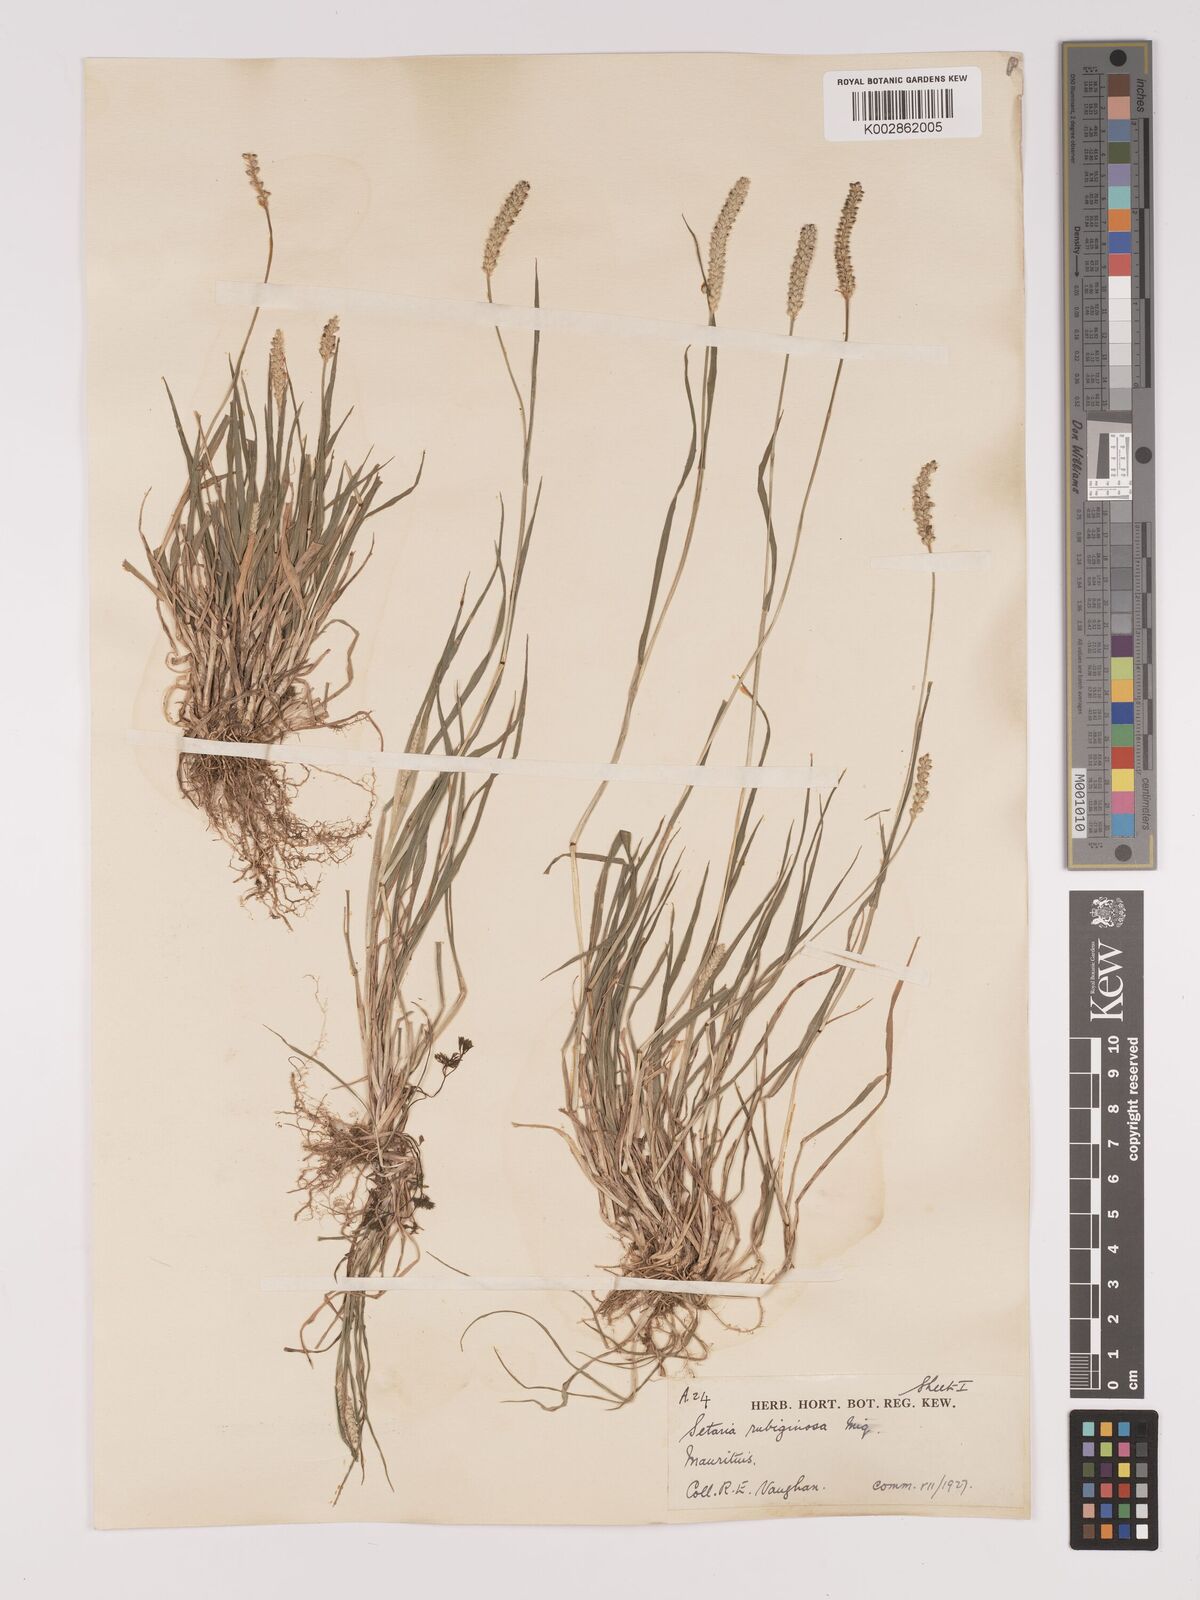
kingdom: Plantae
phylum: Tracheophyta
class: Liliopsida
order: Poales
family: Poaceae
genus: Setaria
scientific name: Setaria pumila
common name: Yellow bristle-grass
